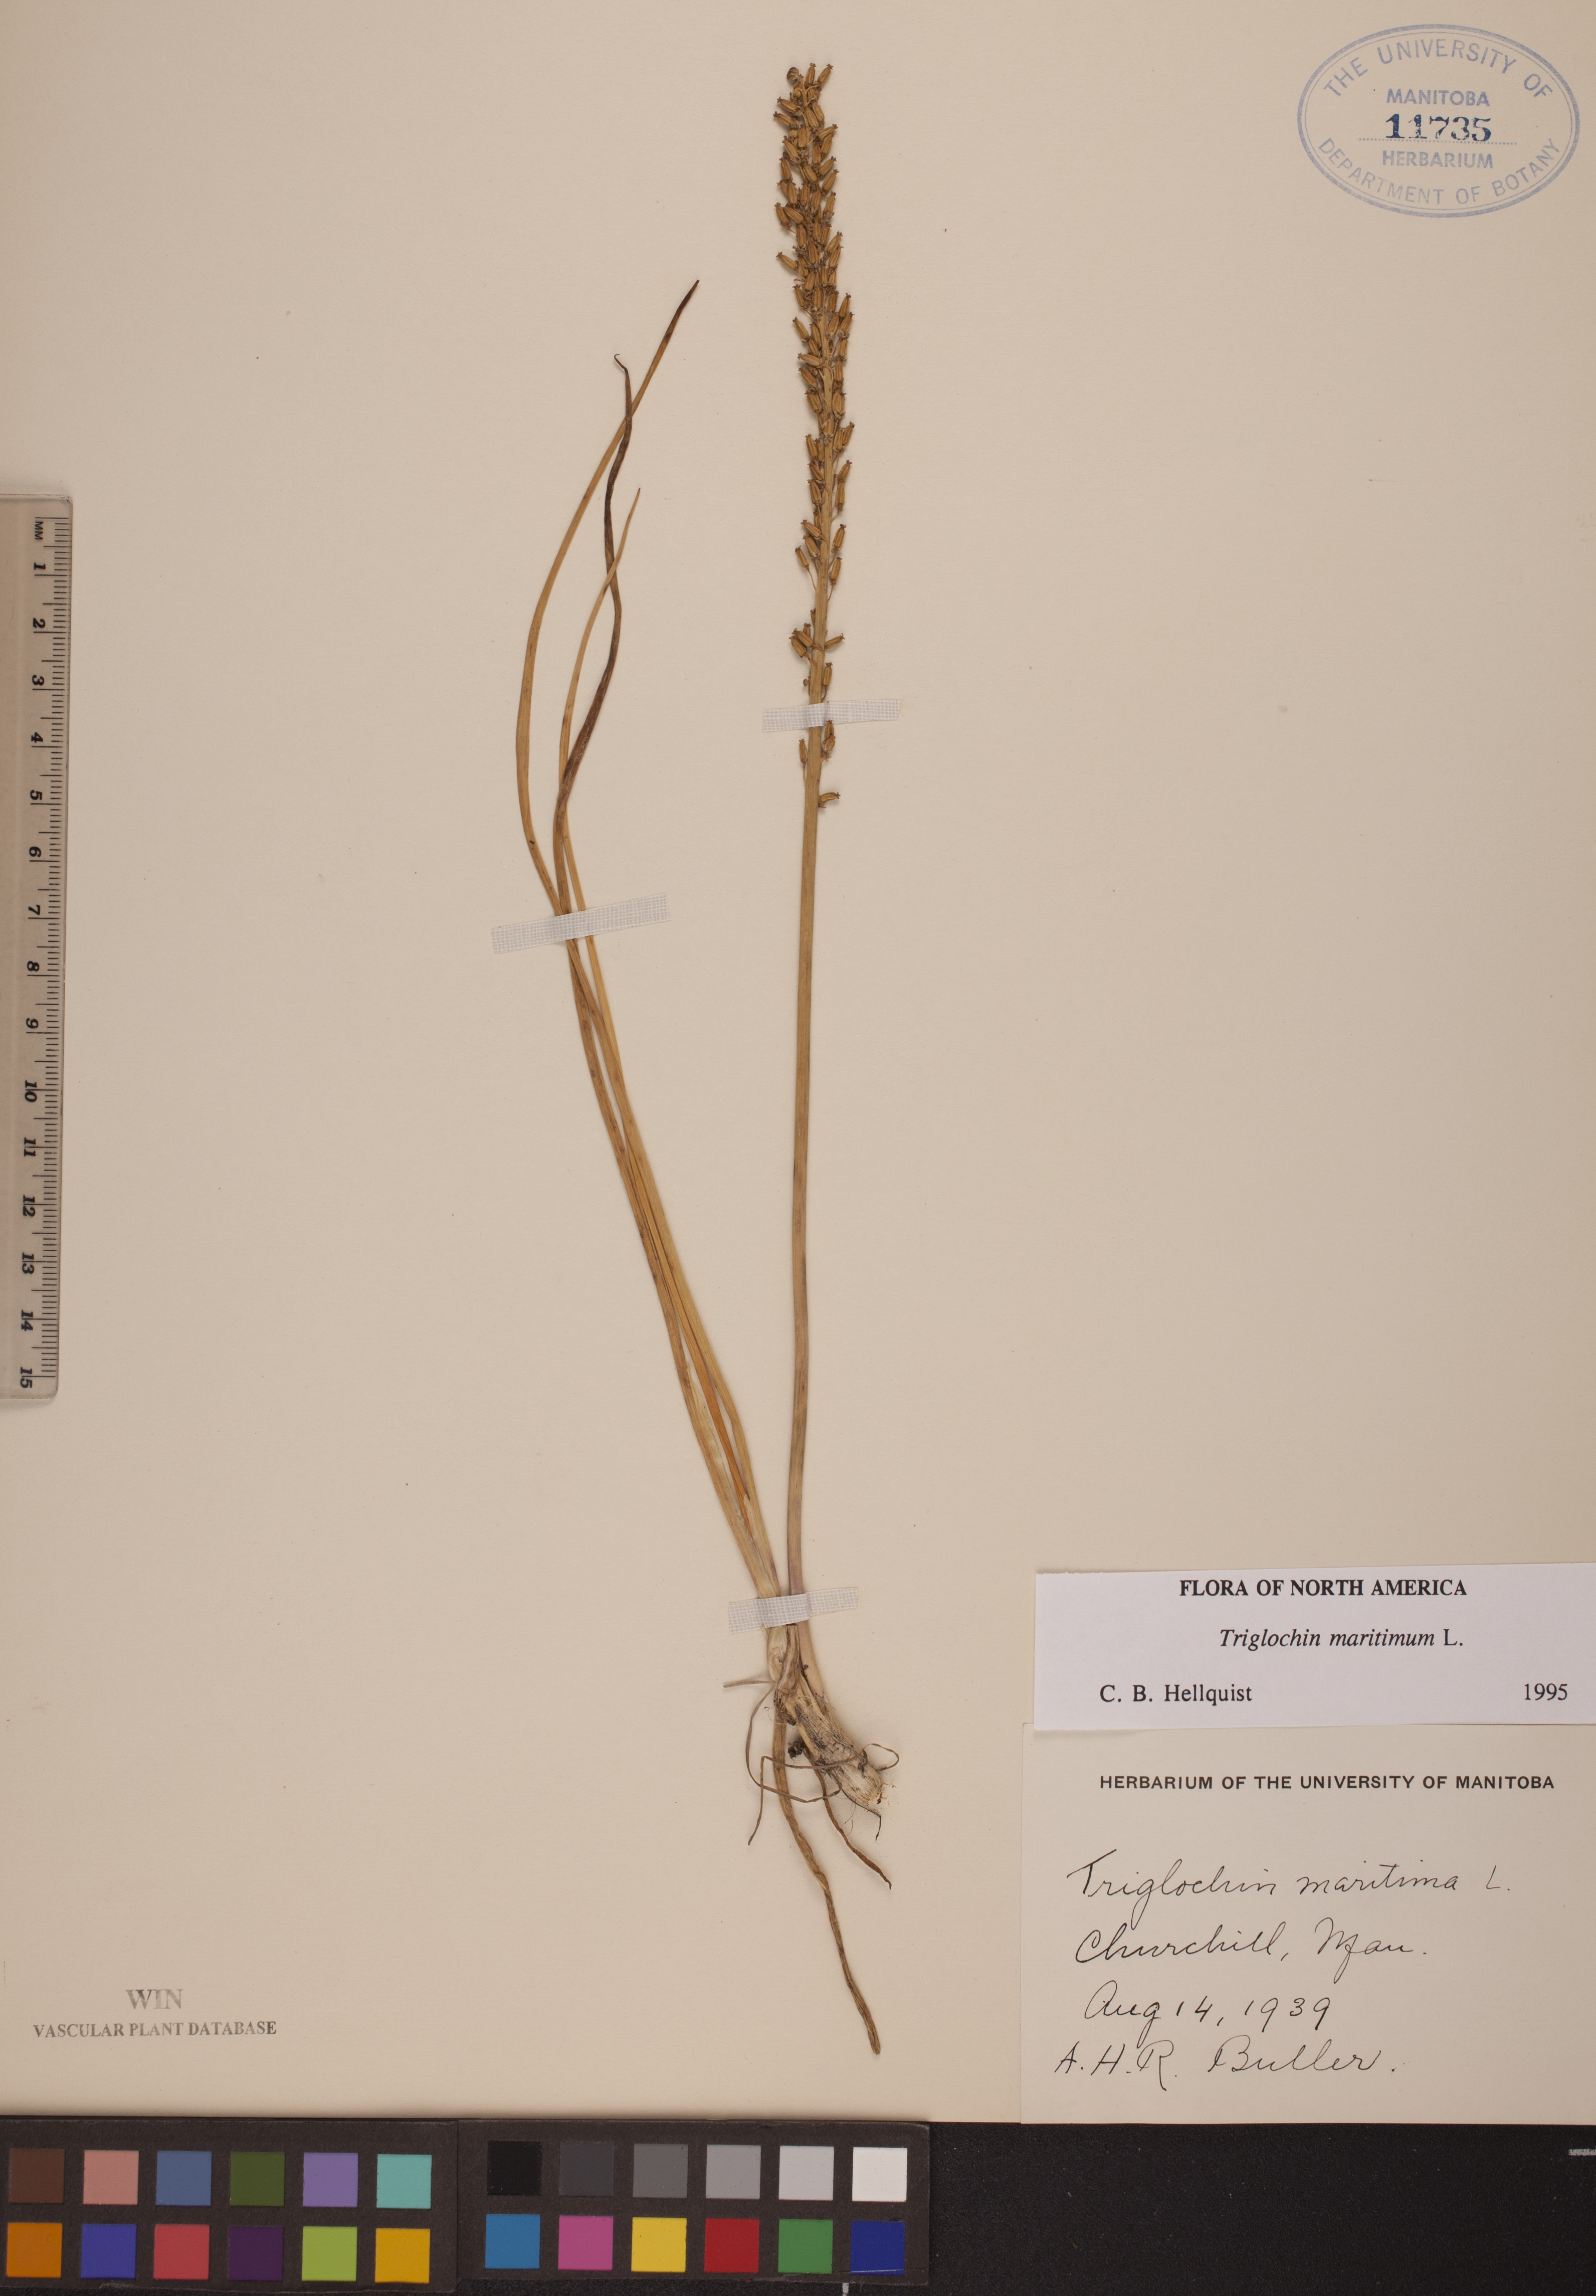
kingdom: Plantae
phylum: Tracheophyta
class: Liliopsida
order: Alismatales
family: Juncaginaceae
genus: Triglochin
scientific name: Triglochin maritima
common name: Sea arrowgrass
